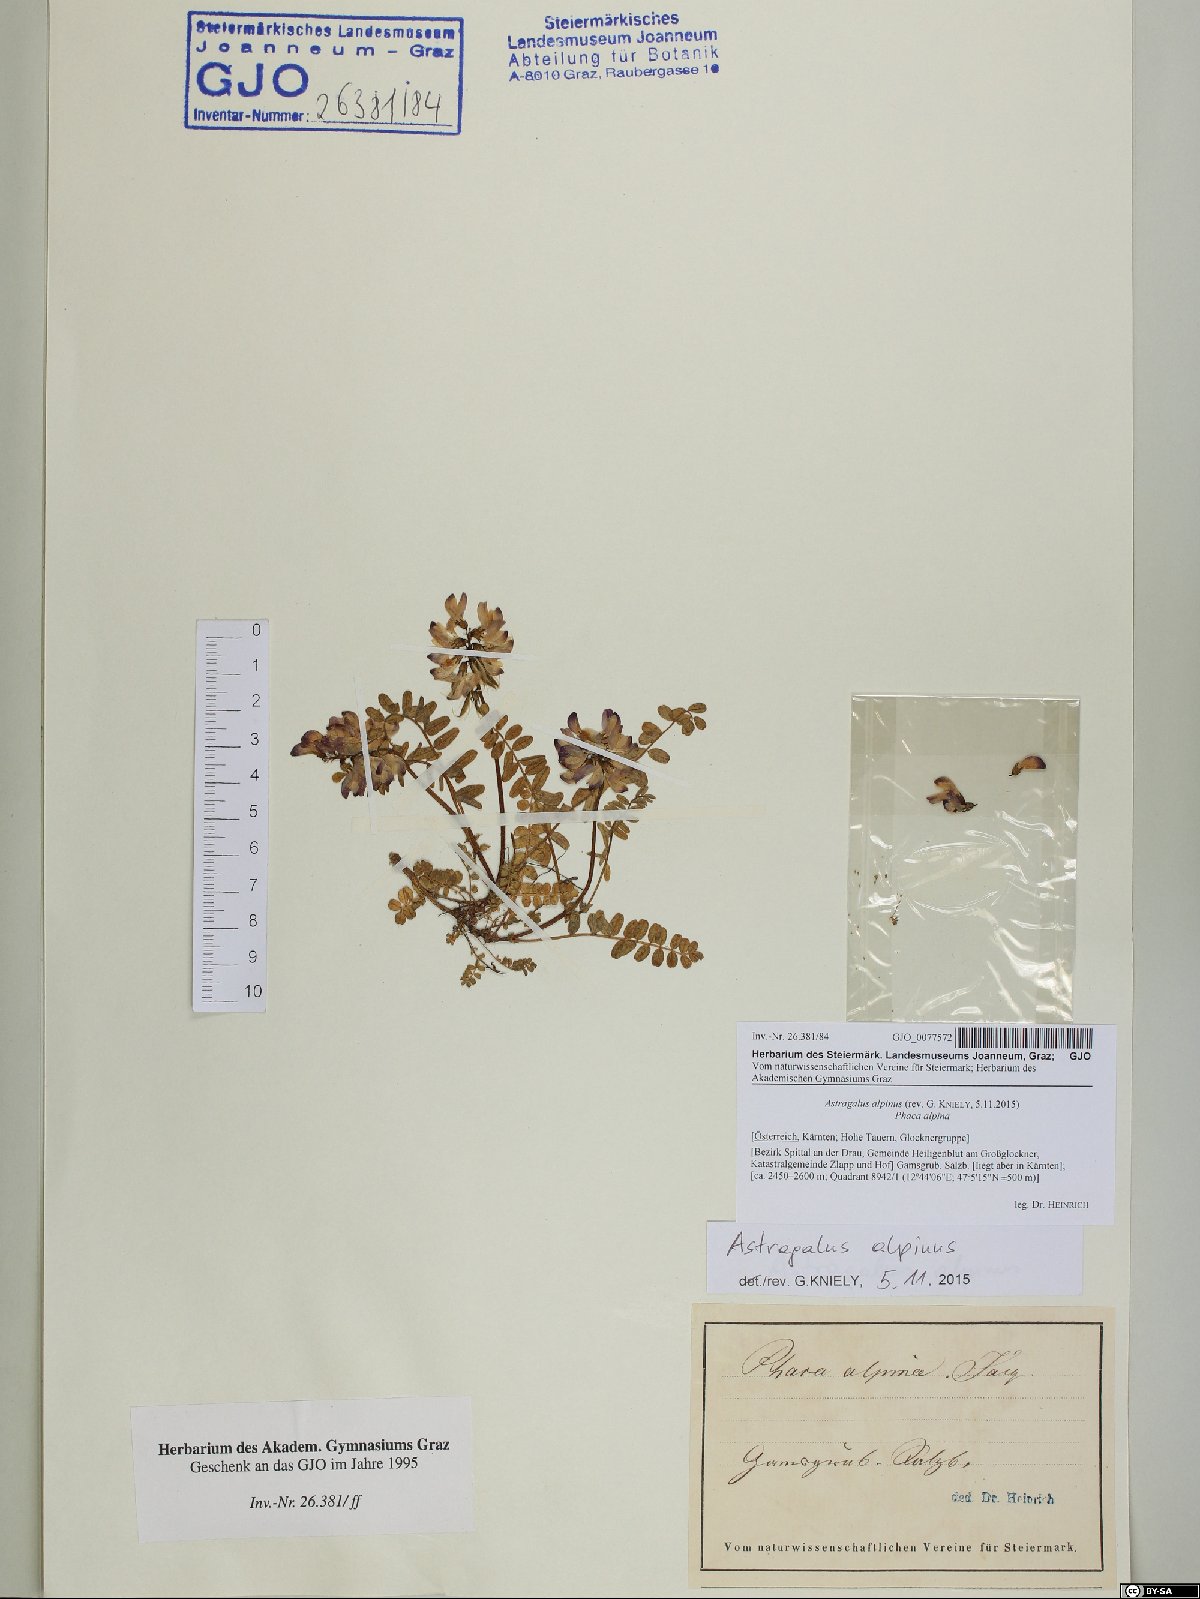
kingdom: Plantae
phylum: Tracheophyta
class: Magnoliopsida
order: Fabales
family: Fabaceae
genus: Astragalus
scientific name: Astragalus alpinus
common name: Alpine milk-vetch
